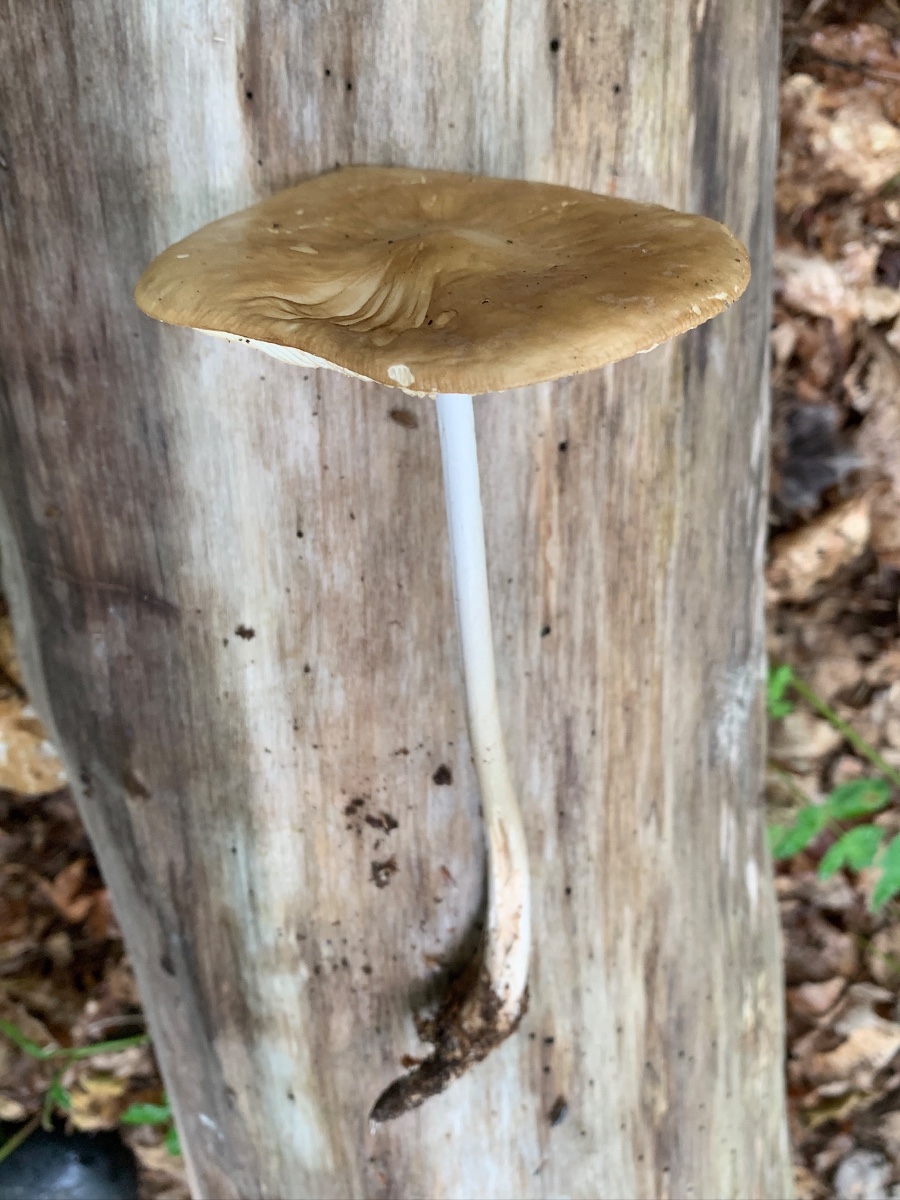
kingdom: Fungi
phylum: Basidiomycota
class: Agaricomycetes
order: Agaricales
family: Physalacriaceae
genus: Hymenopellis
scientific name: Hymenopellis radicata
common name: almindelig pælerodshat
